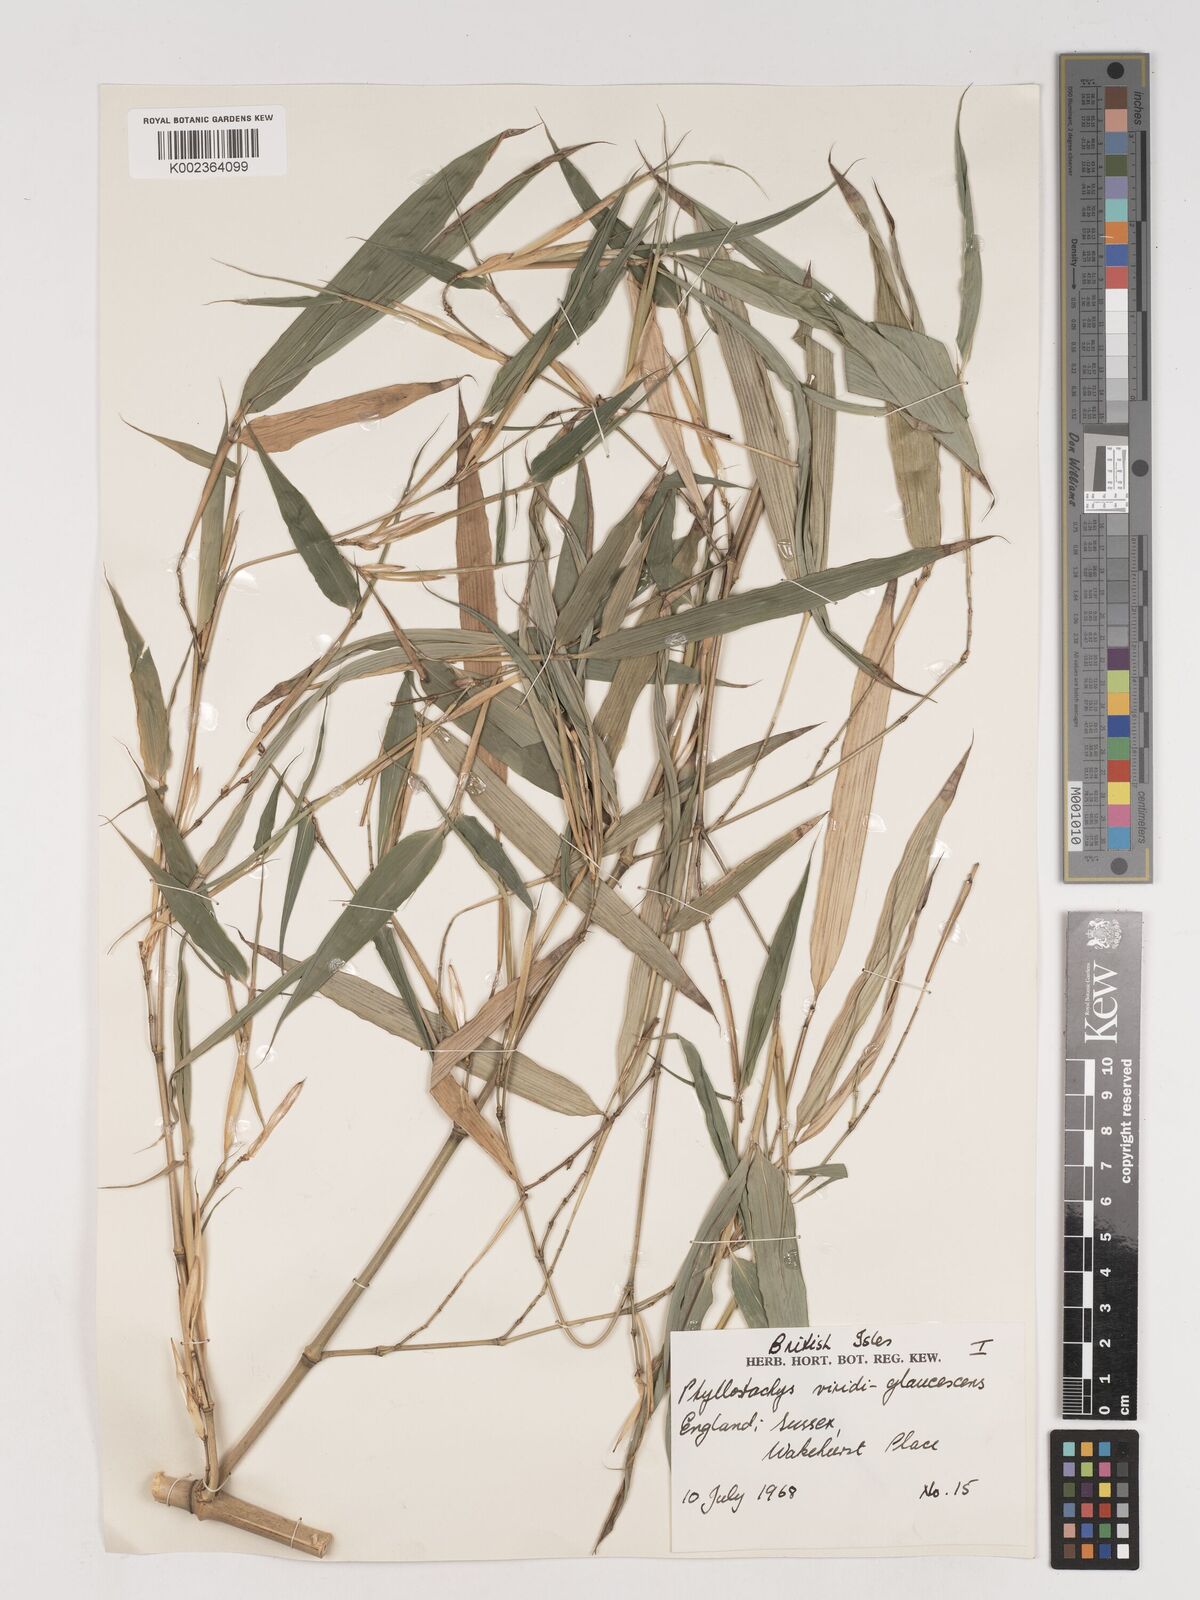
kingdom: Plantae
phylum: Tracheophyta
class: Liliopsida
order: Poales
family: Poaceae
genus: Phyllostachys
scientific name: Phyllostachys viridiglaucescens
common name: Greenwax golden bamboo
